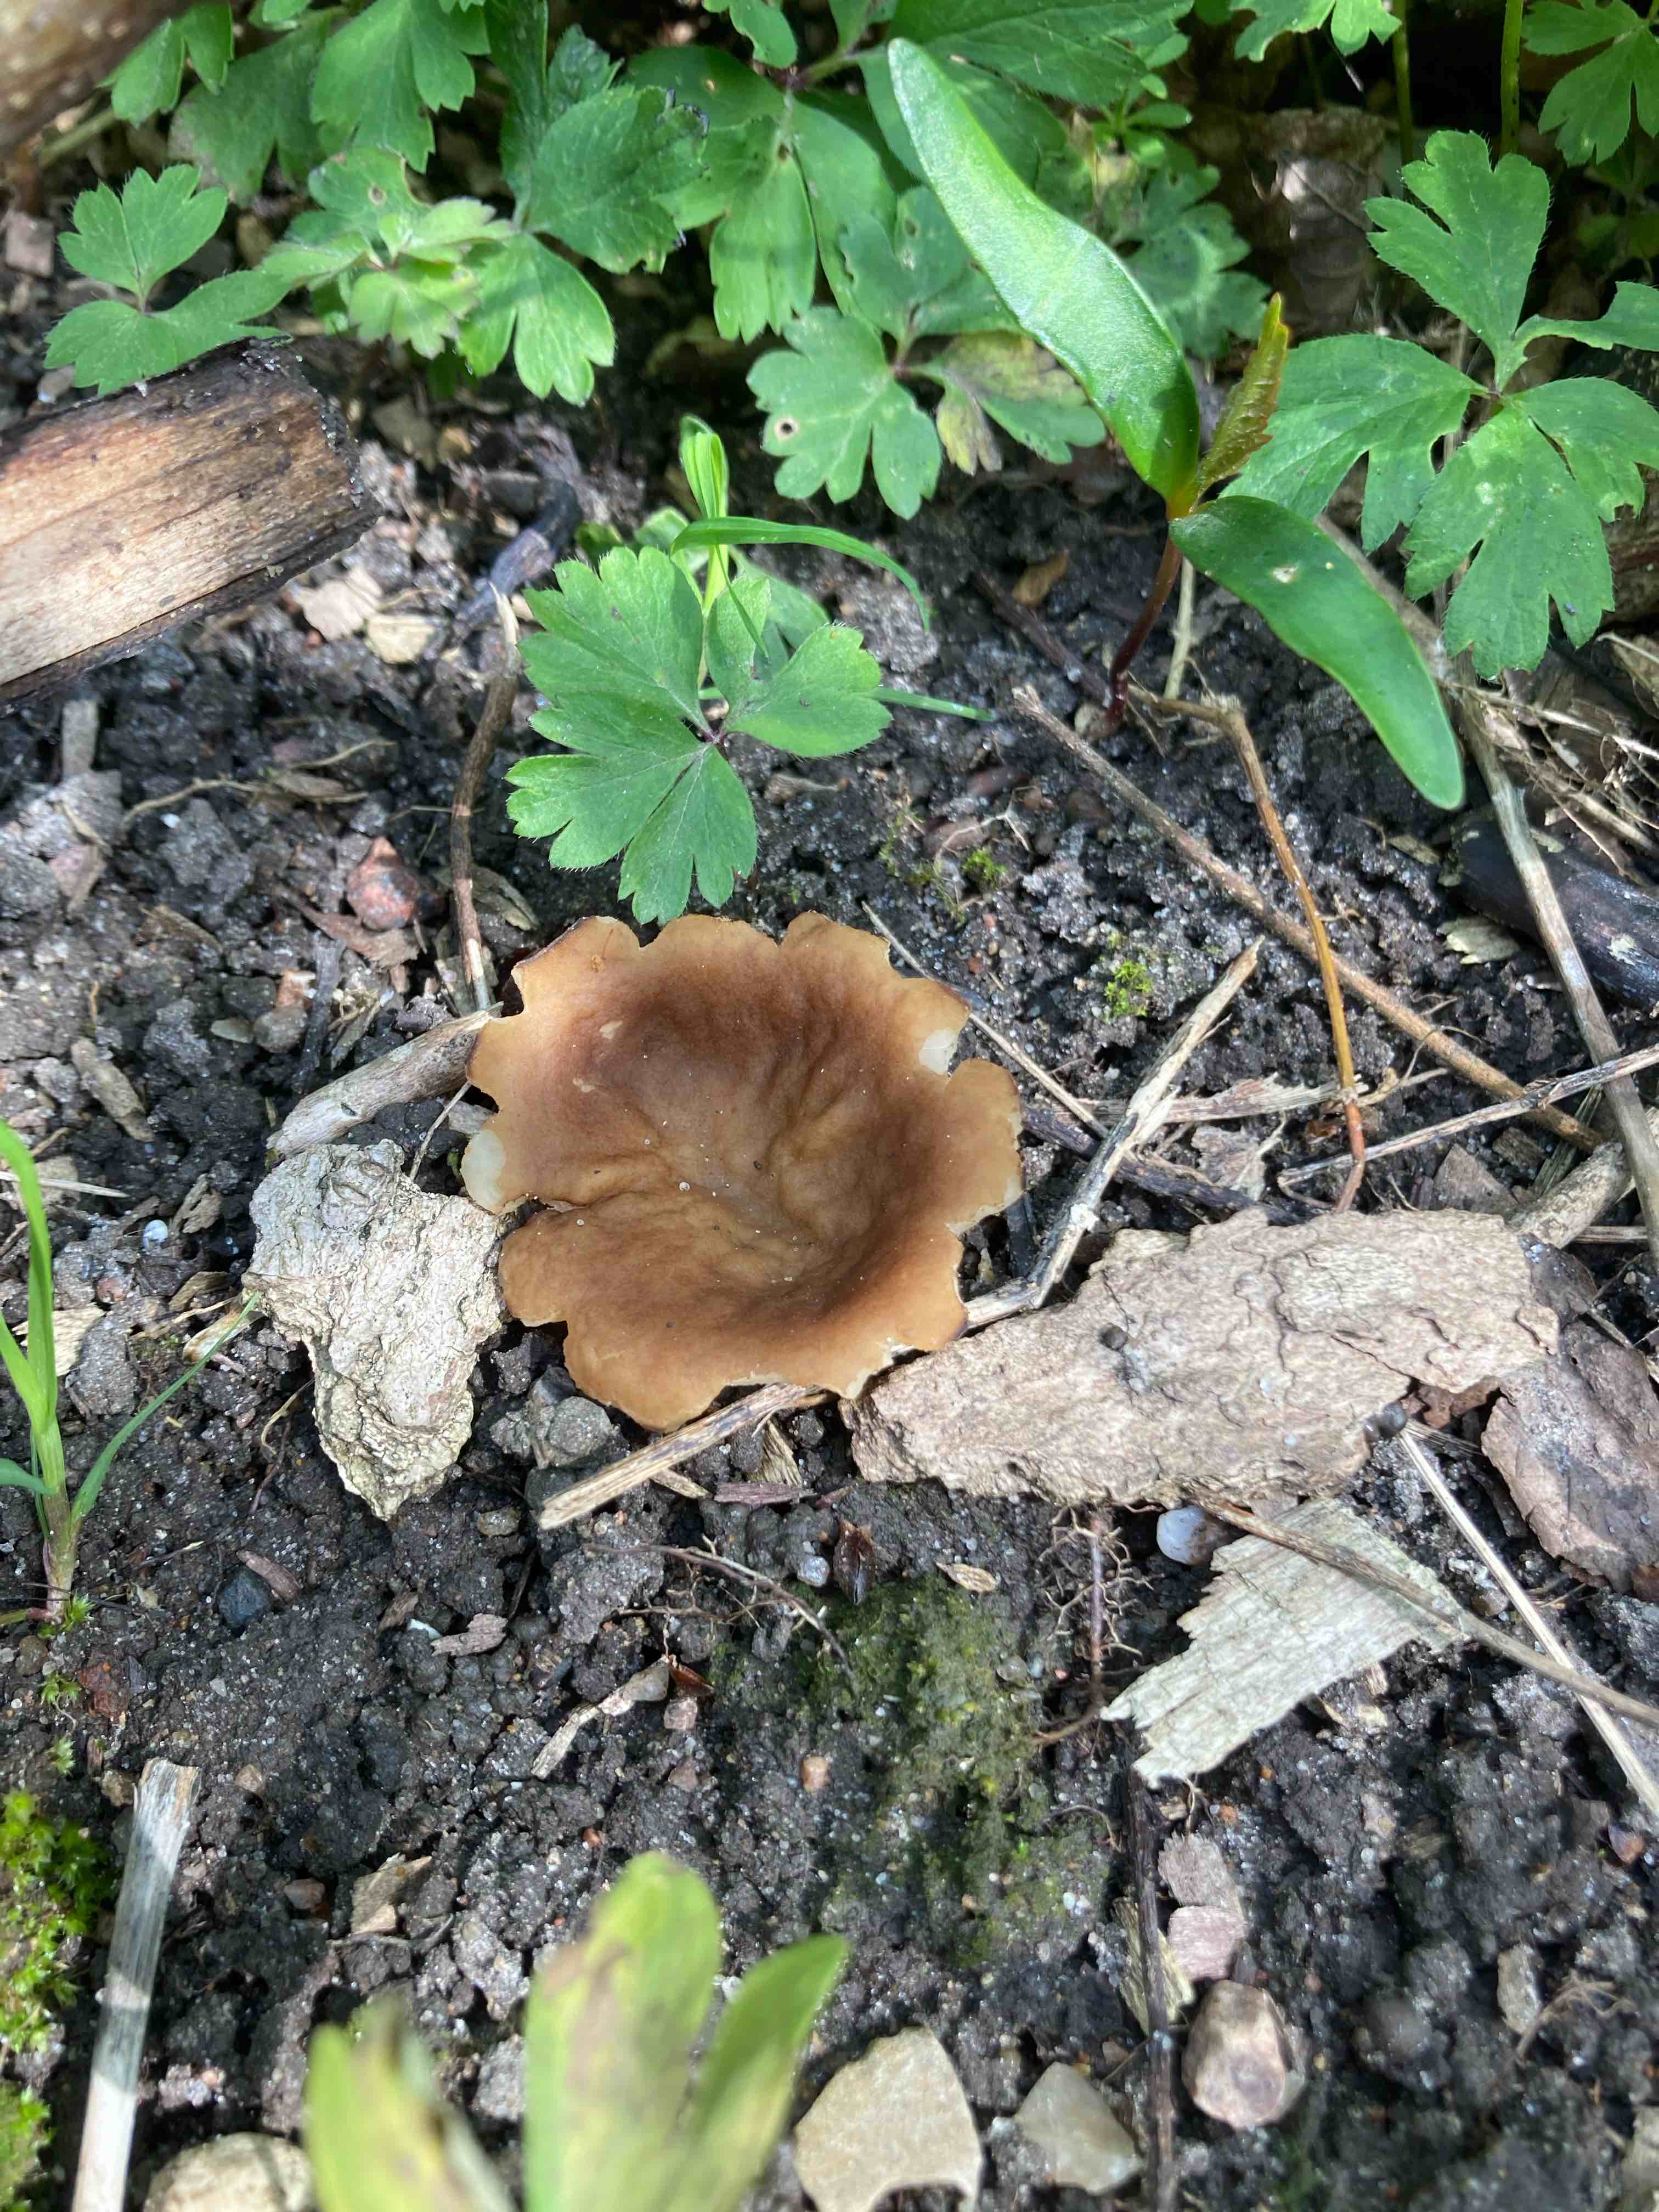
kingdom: Fungi
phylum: Ascomycota
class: Pezizomycetes
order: Pezizales
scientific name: Pezizales
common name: bægersvampordenen
